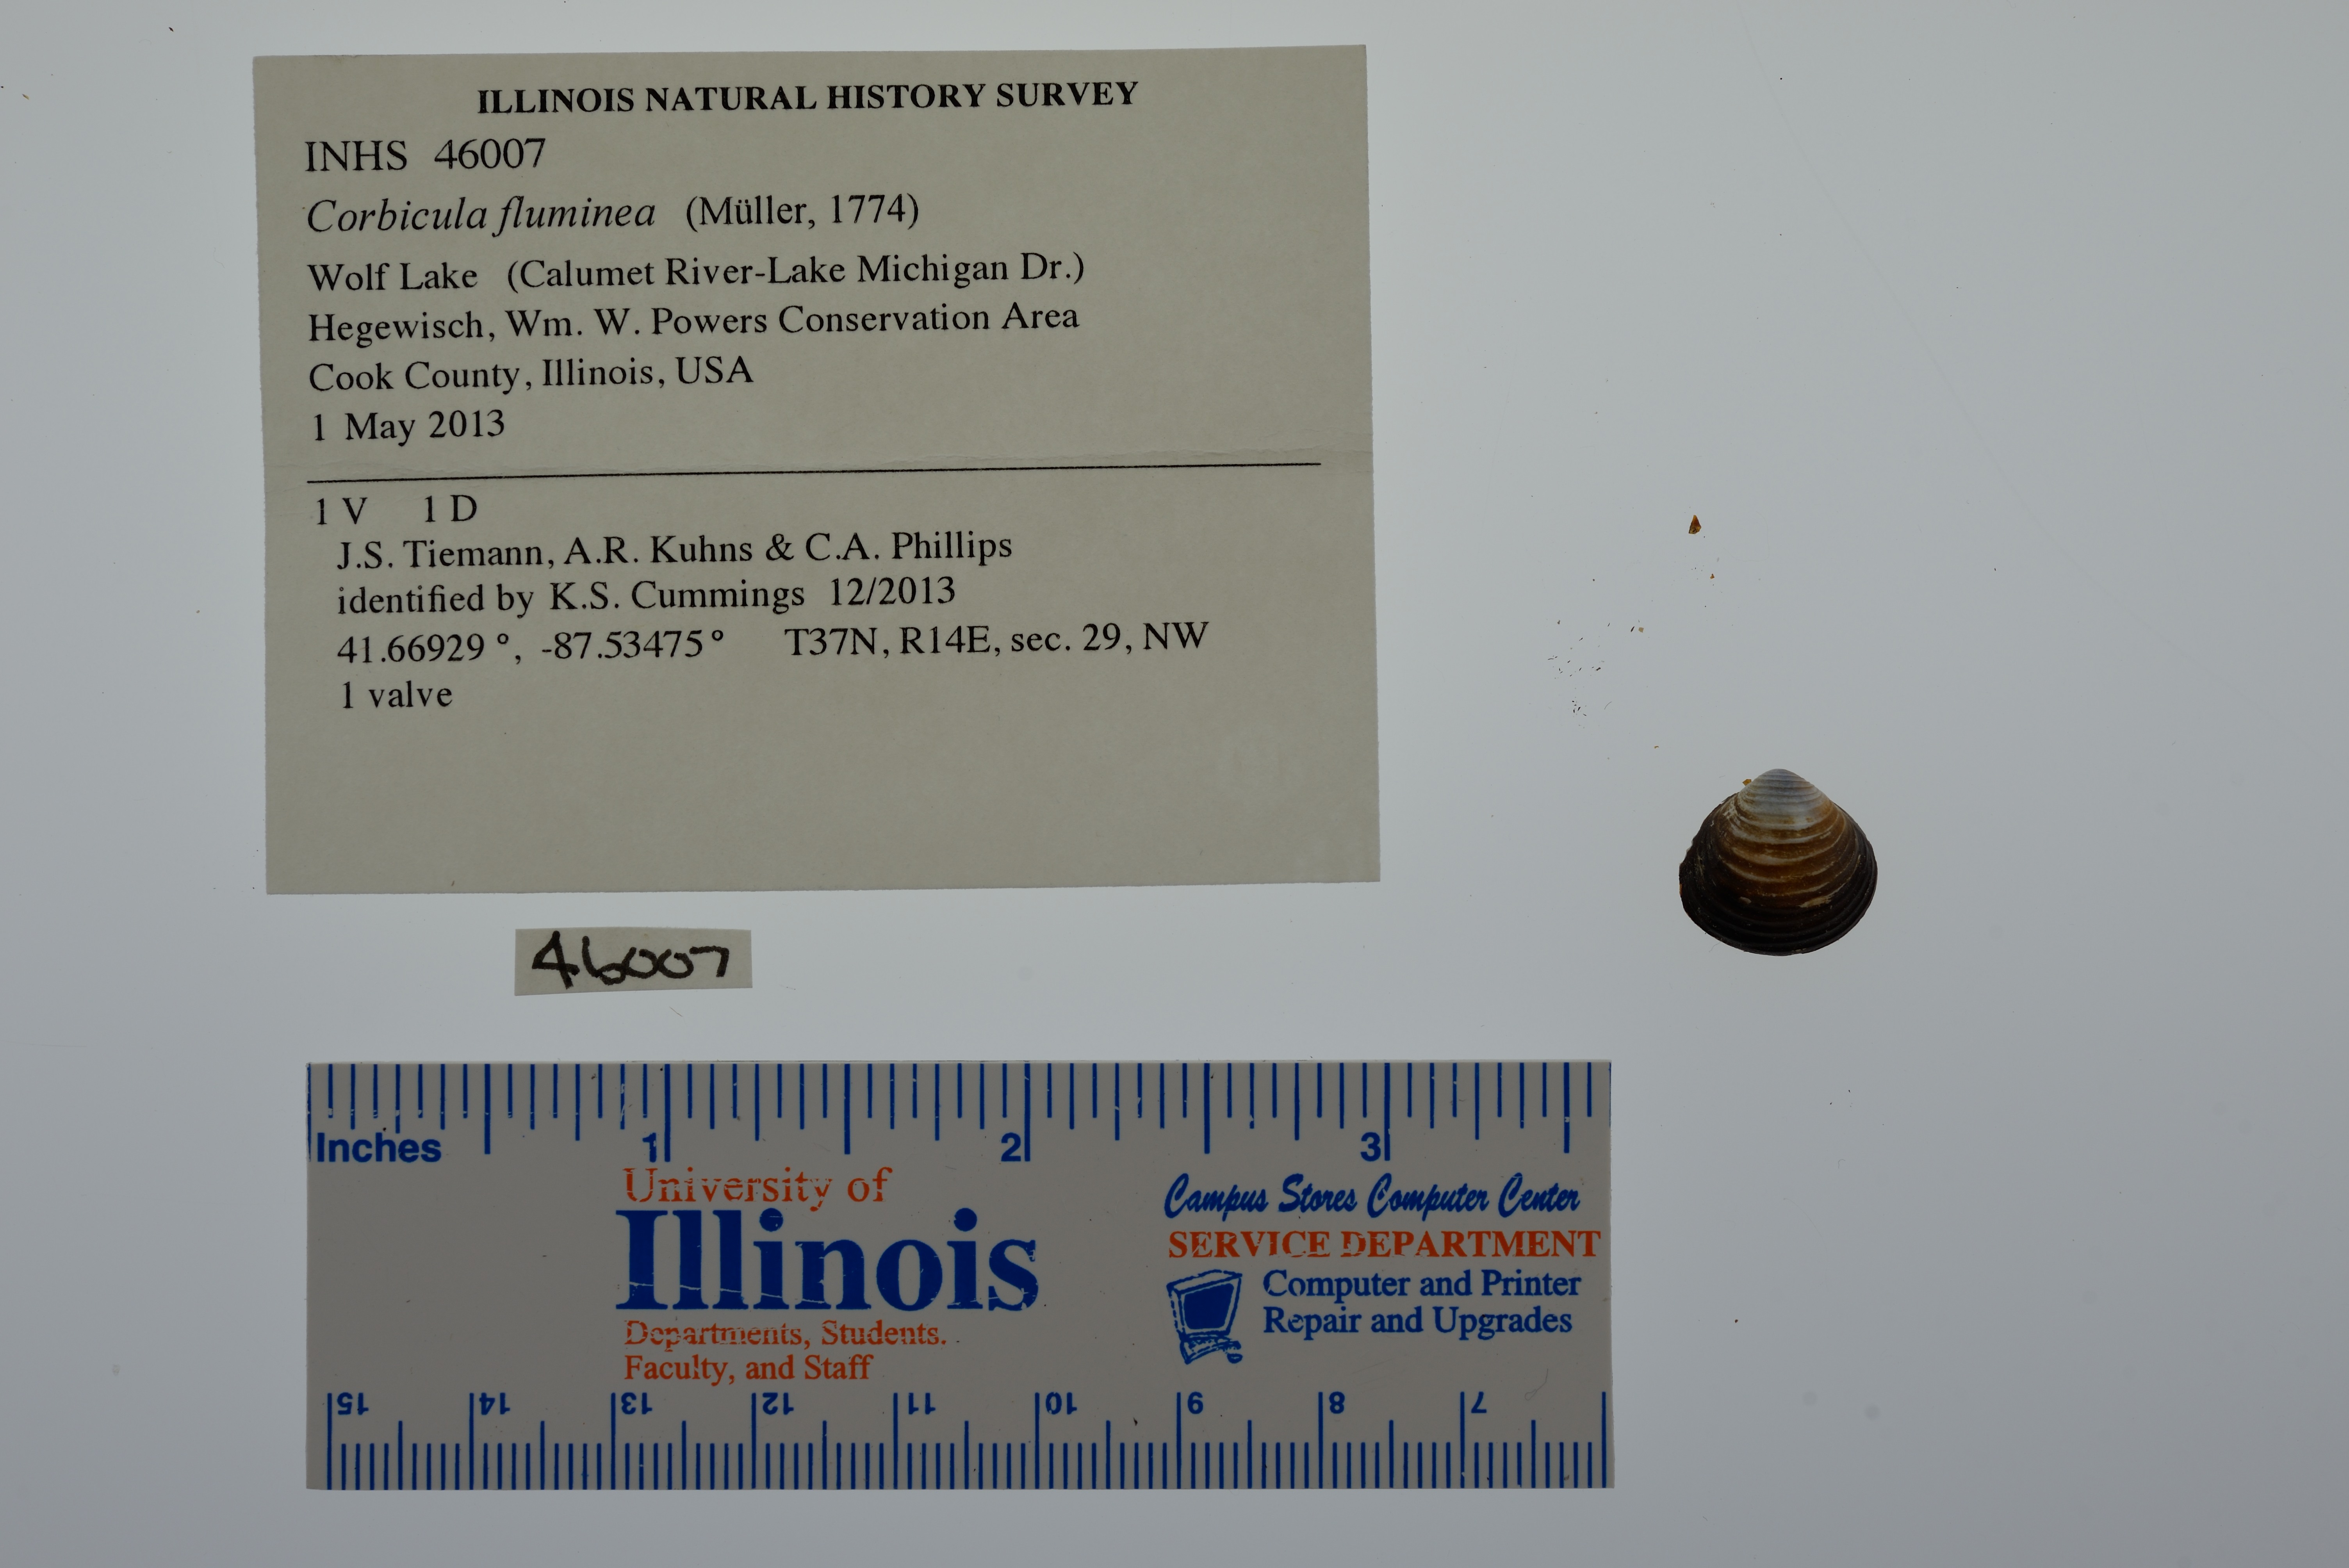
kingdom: Animalia
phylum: Mollusca
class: Bivalvia
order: Venerida
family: Cyrenidae
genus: Corbicula
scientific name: Corbicula fluminea
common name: Asian clam
